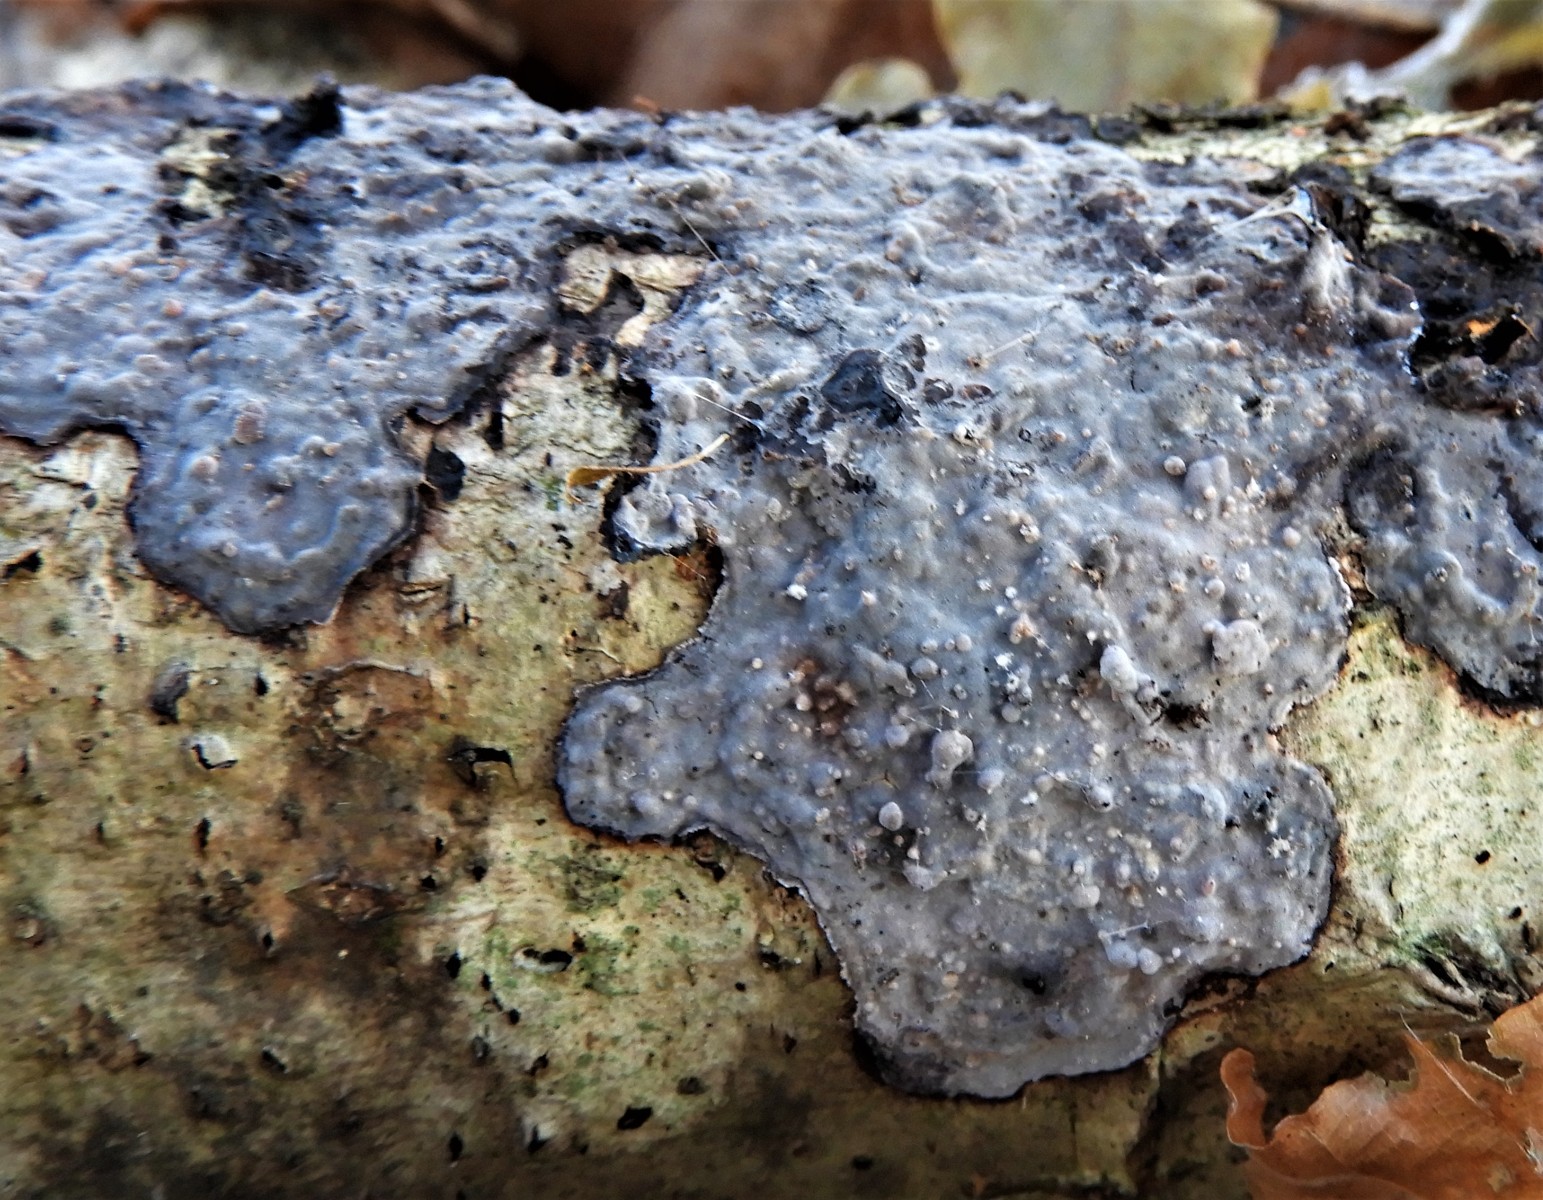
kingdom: Fungi
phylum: Basidiomycota
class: Agaricomycetes
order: Russulales
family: Peniophoraceae
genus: Peniophora
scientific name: Peniophora limitata
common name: mørkrandet voksskind
